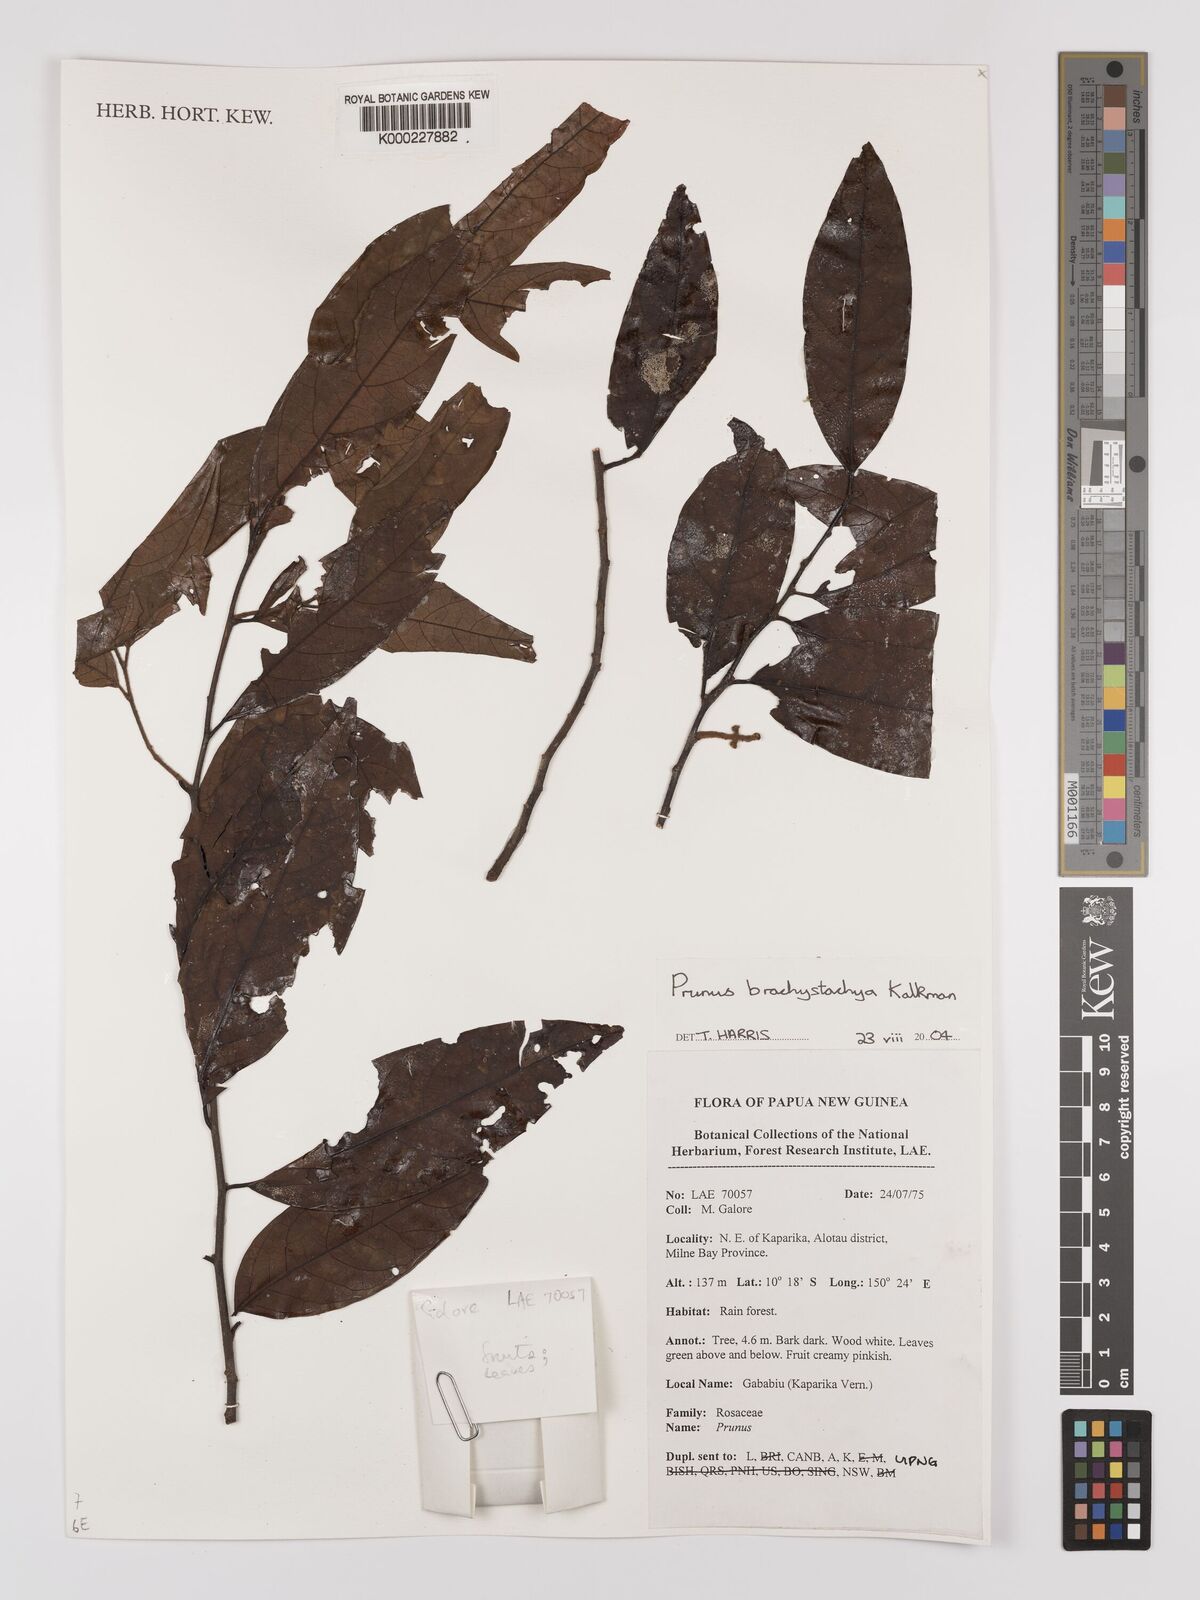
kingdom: Plantae
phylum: Tracheophyta
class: Magnoliopsida
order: Rosales
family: Rosaceae
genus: Prunus
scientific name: Prunus brachystachya
